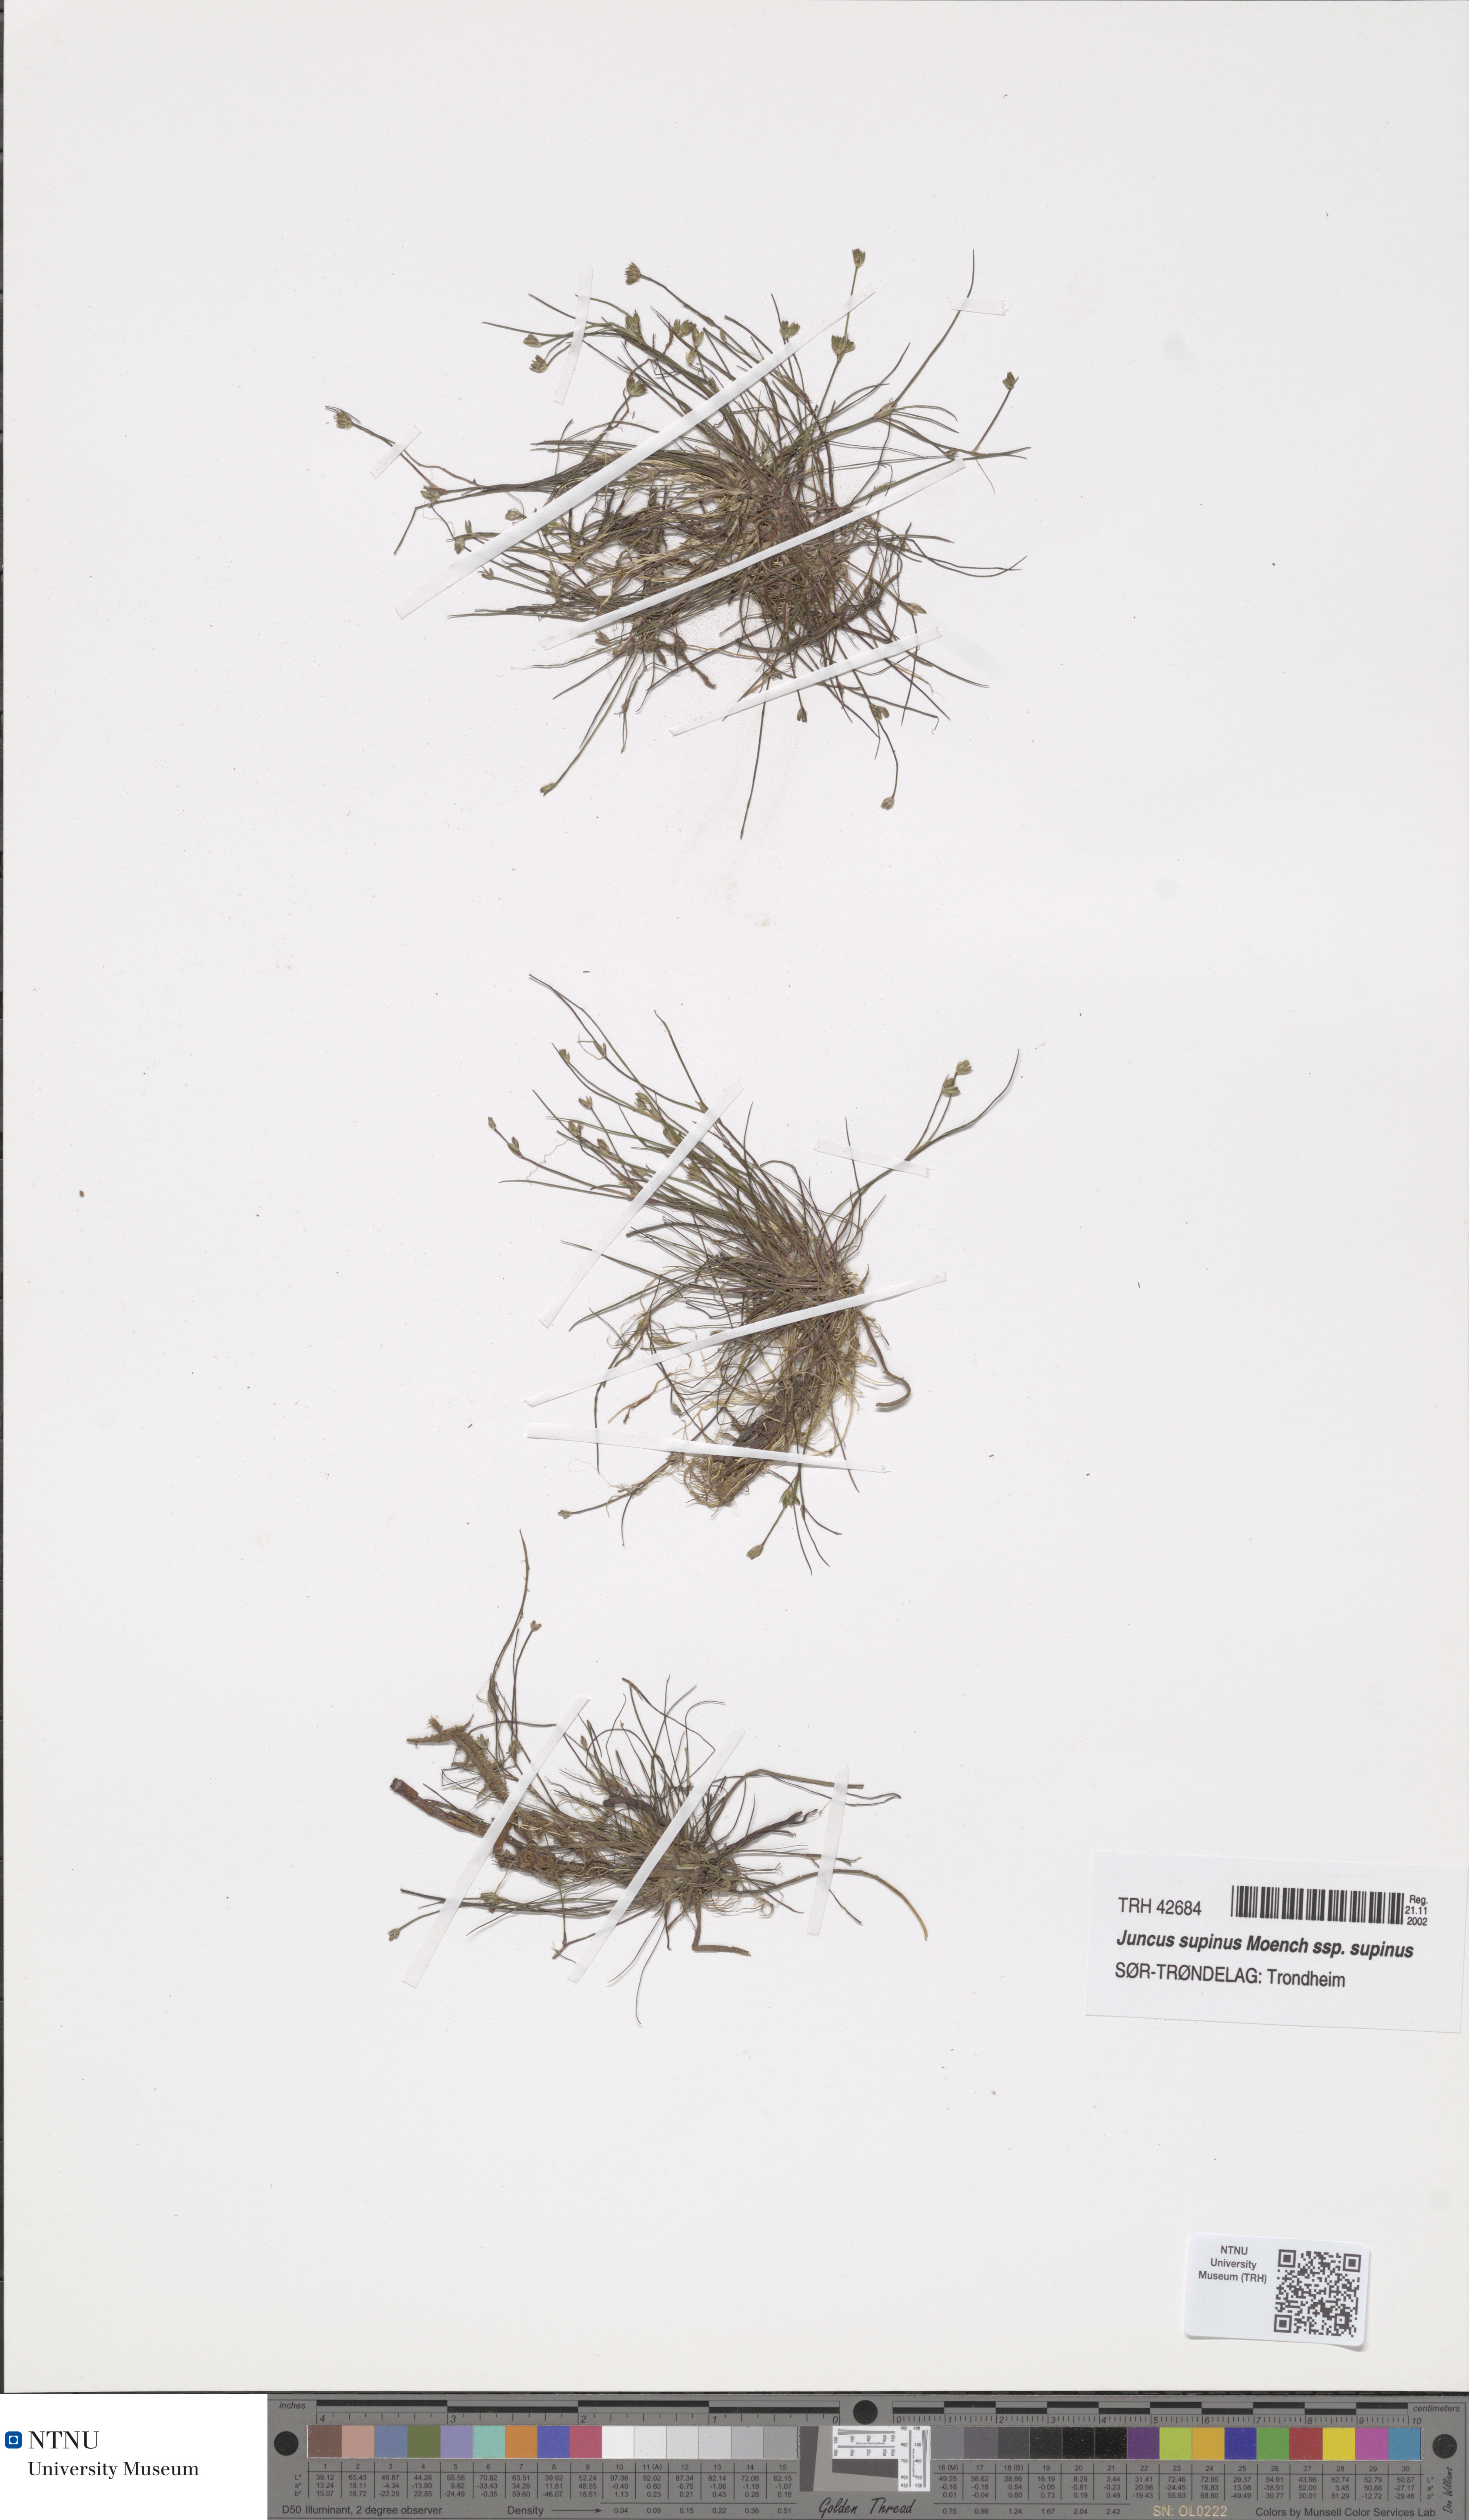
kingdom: Plantae
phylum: Tracheophyta
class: Liliopsida
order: Poales
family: Juncaceae
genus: Juncus
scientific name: Juncus bulbosus
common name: Bulbous rush
